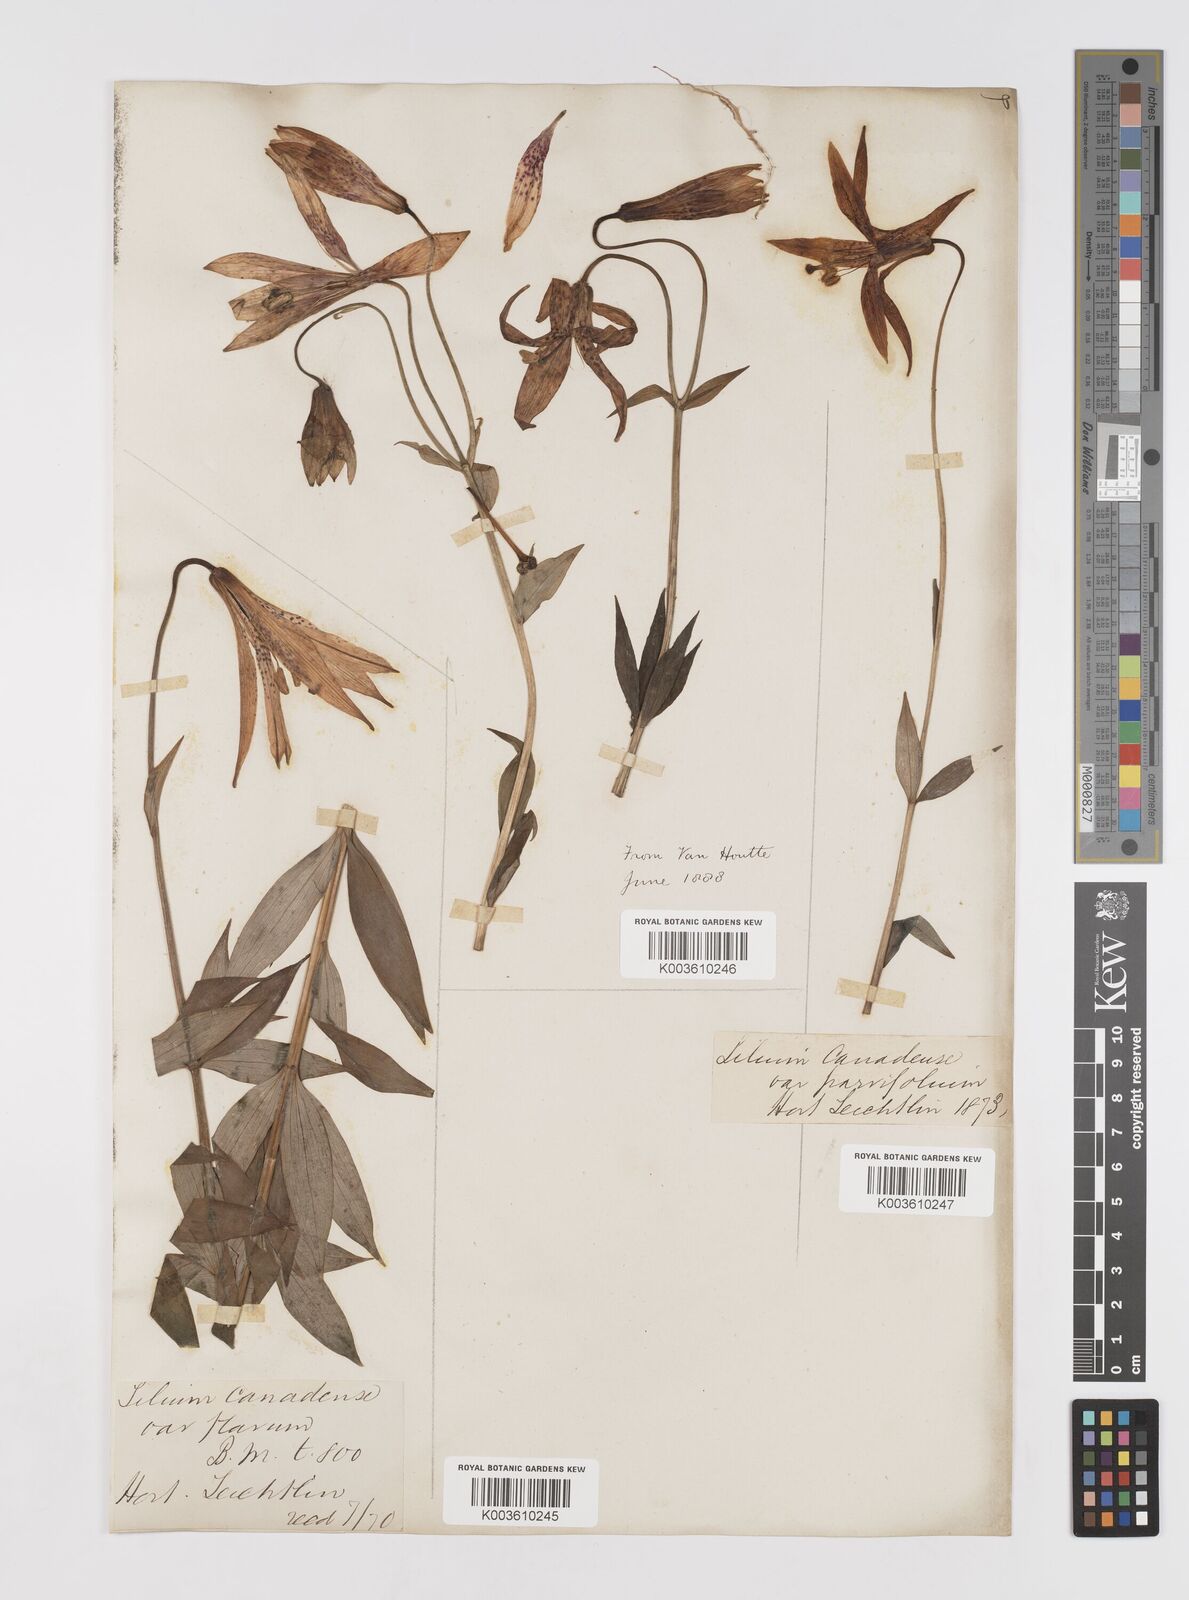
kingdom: Plantae
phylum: Tracheophyta
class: Liliopsida
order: Liliales
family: Liliaceae
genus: Lilium
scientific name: Lilium canadense
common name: Canada lily
